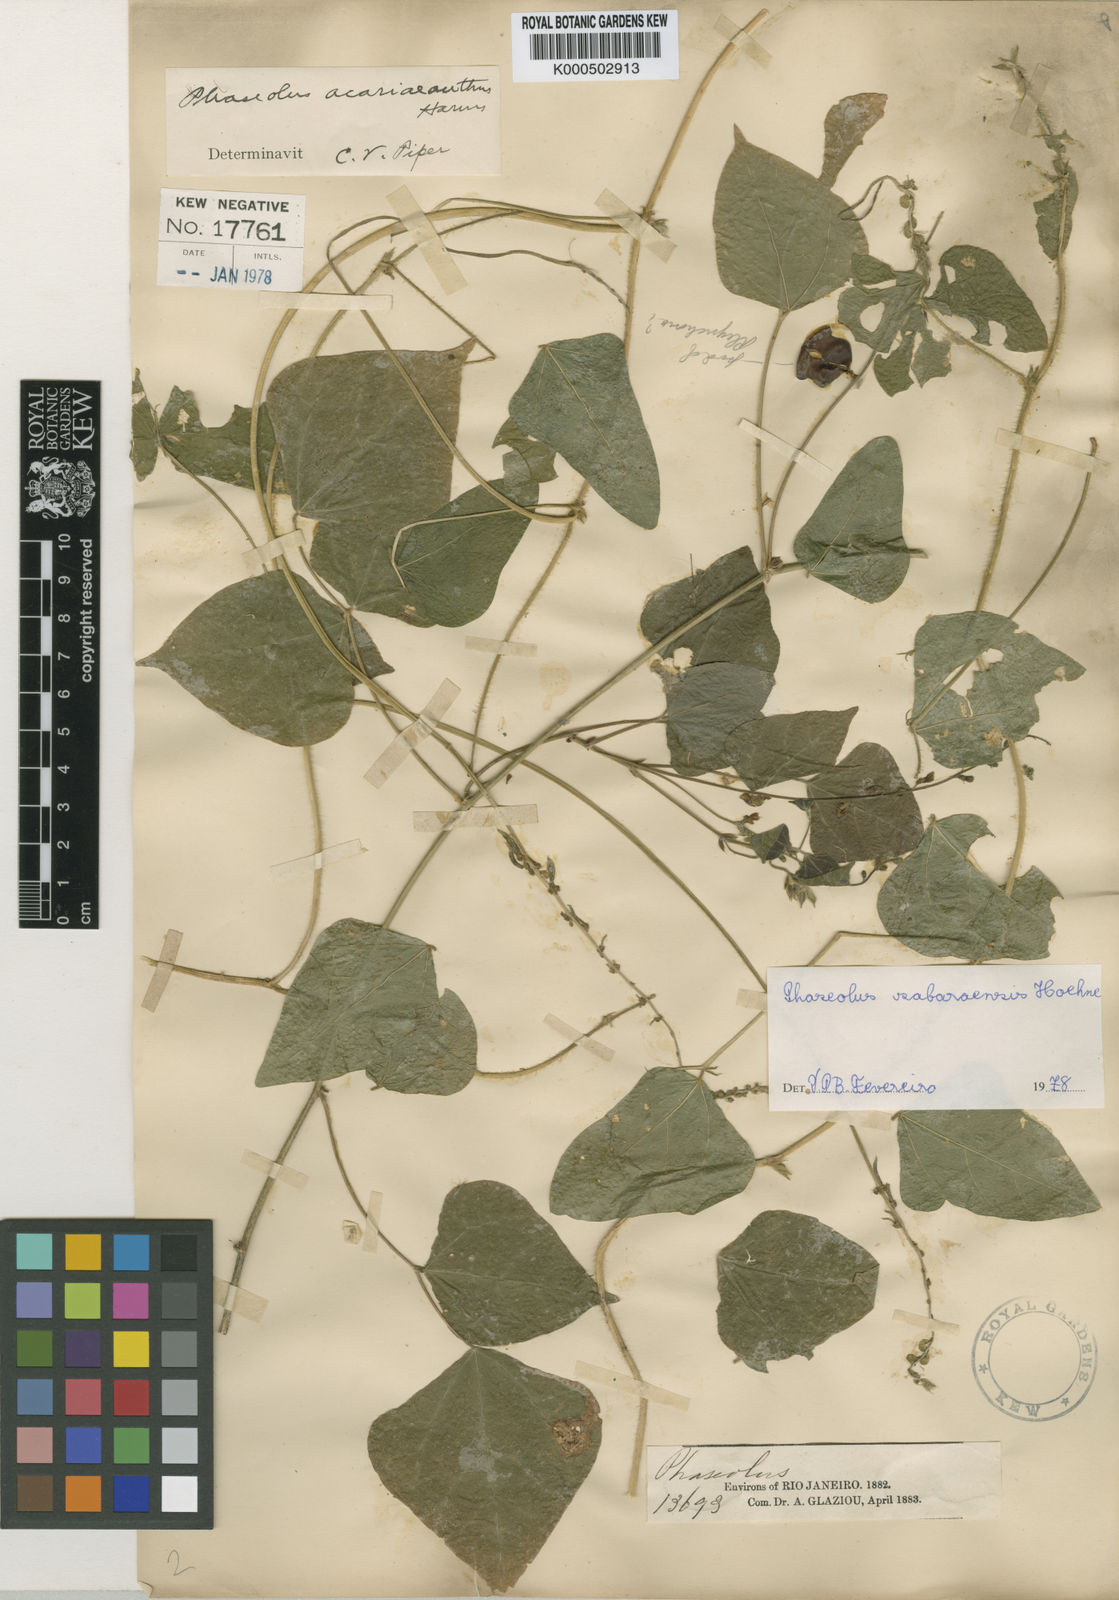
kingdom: Plantae
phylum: Tracheophyta
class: Magnoliopsida
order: Fabales
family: Fabaceae
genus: Macroptilium
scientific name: Macroptilium
